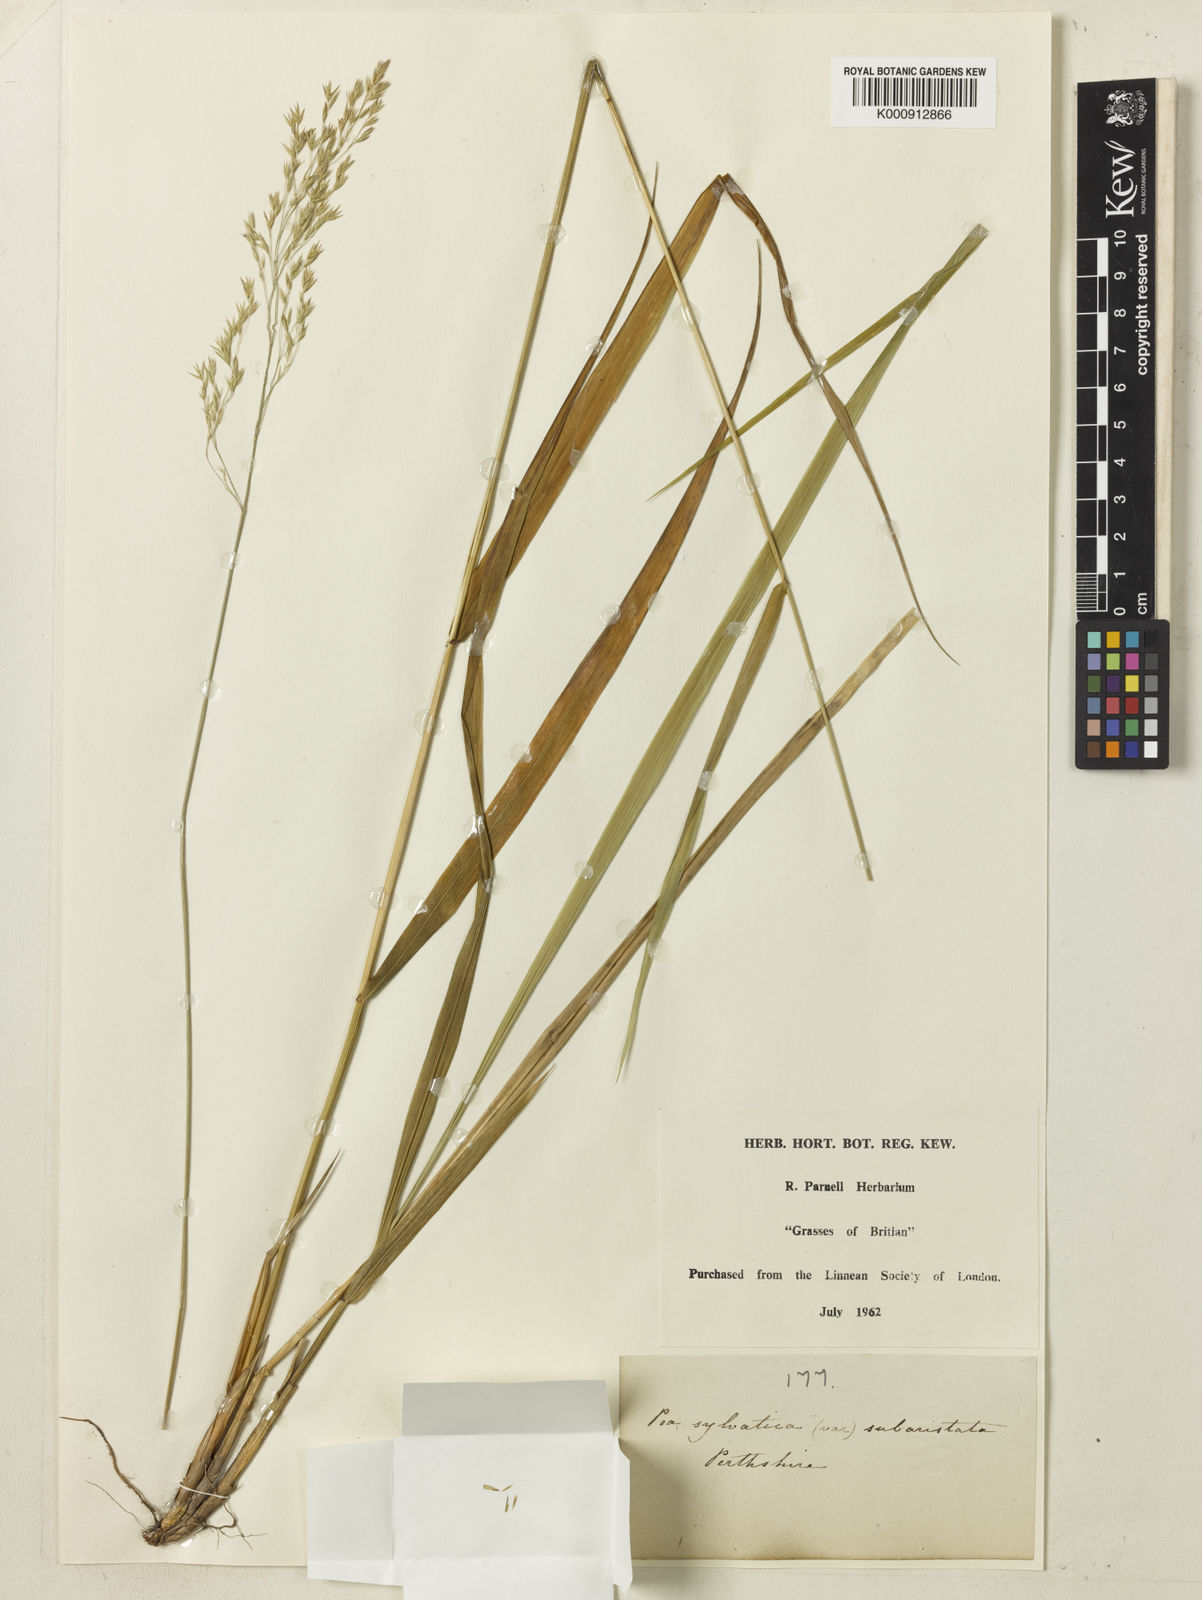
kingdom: Plantae
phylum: Tracheophyta
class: Liliopsida
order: Poales
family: Poaceae
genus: Festuca
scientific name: Festuca altissima
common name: Wood fescue
